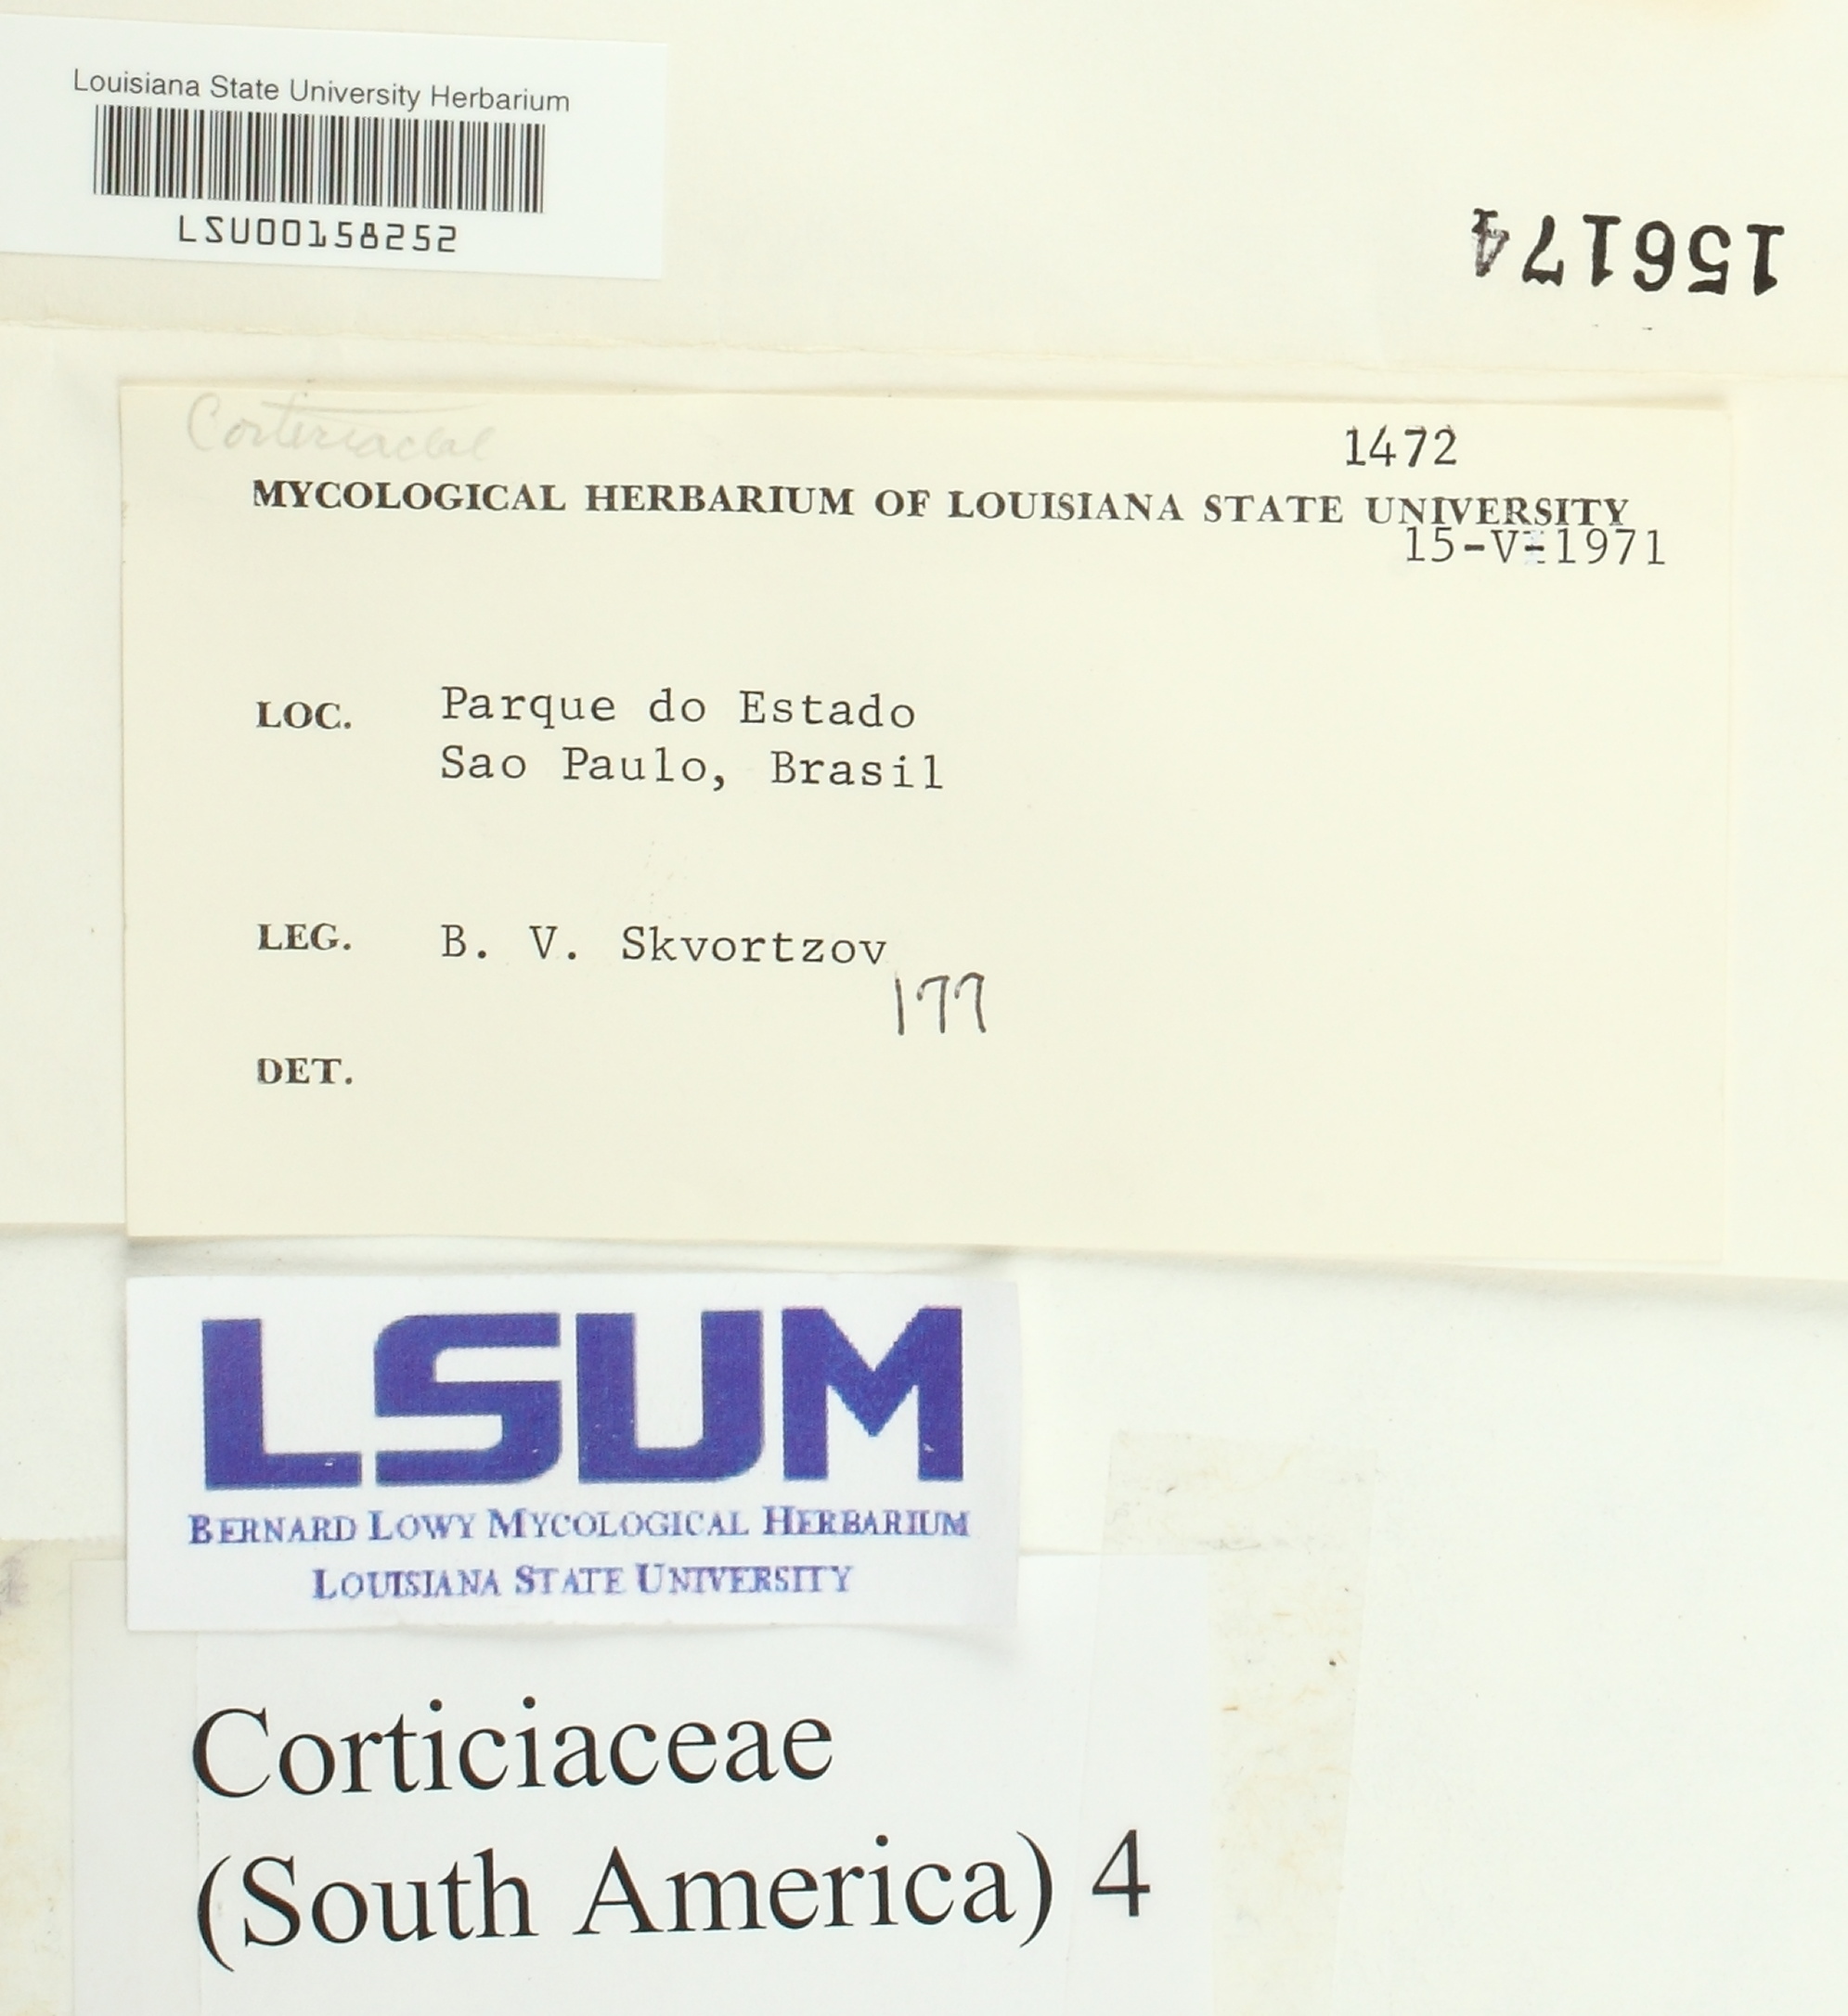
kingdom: Fungi
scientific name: Fungi
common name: Fungi
